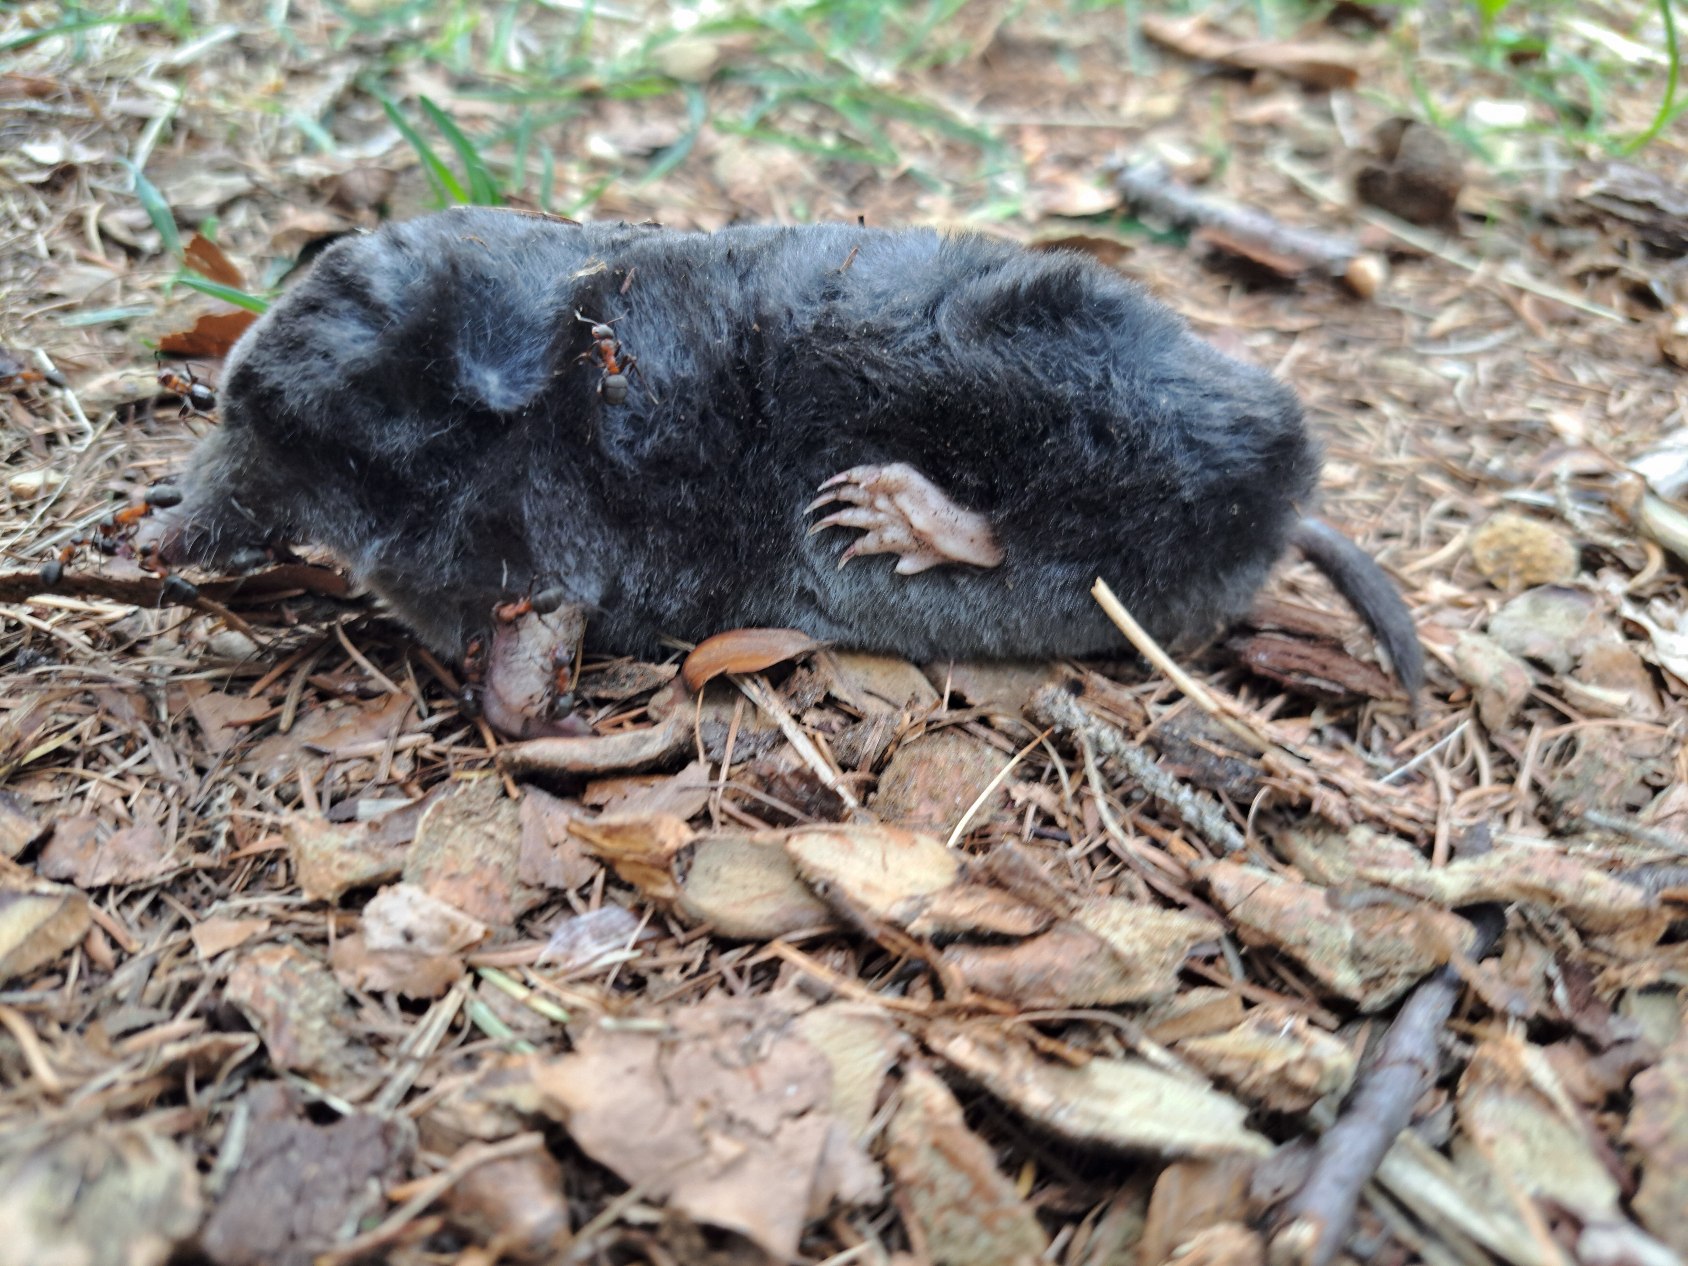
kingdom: Animalia
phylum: Chordata
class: Mammalia
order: Soricomorpha
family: Talpidae
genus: Talpa
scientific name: Talpa europaea
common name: Muldvarp
